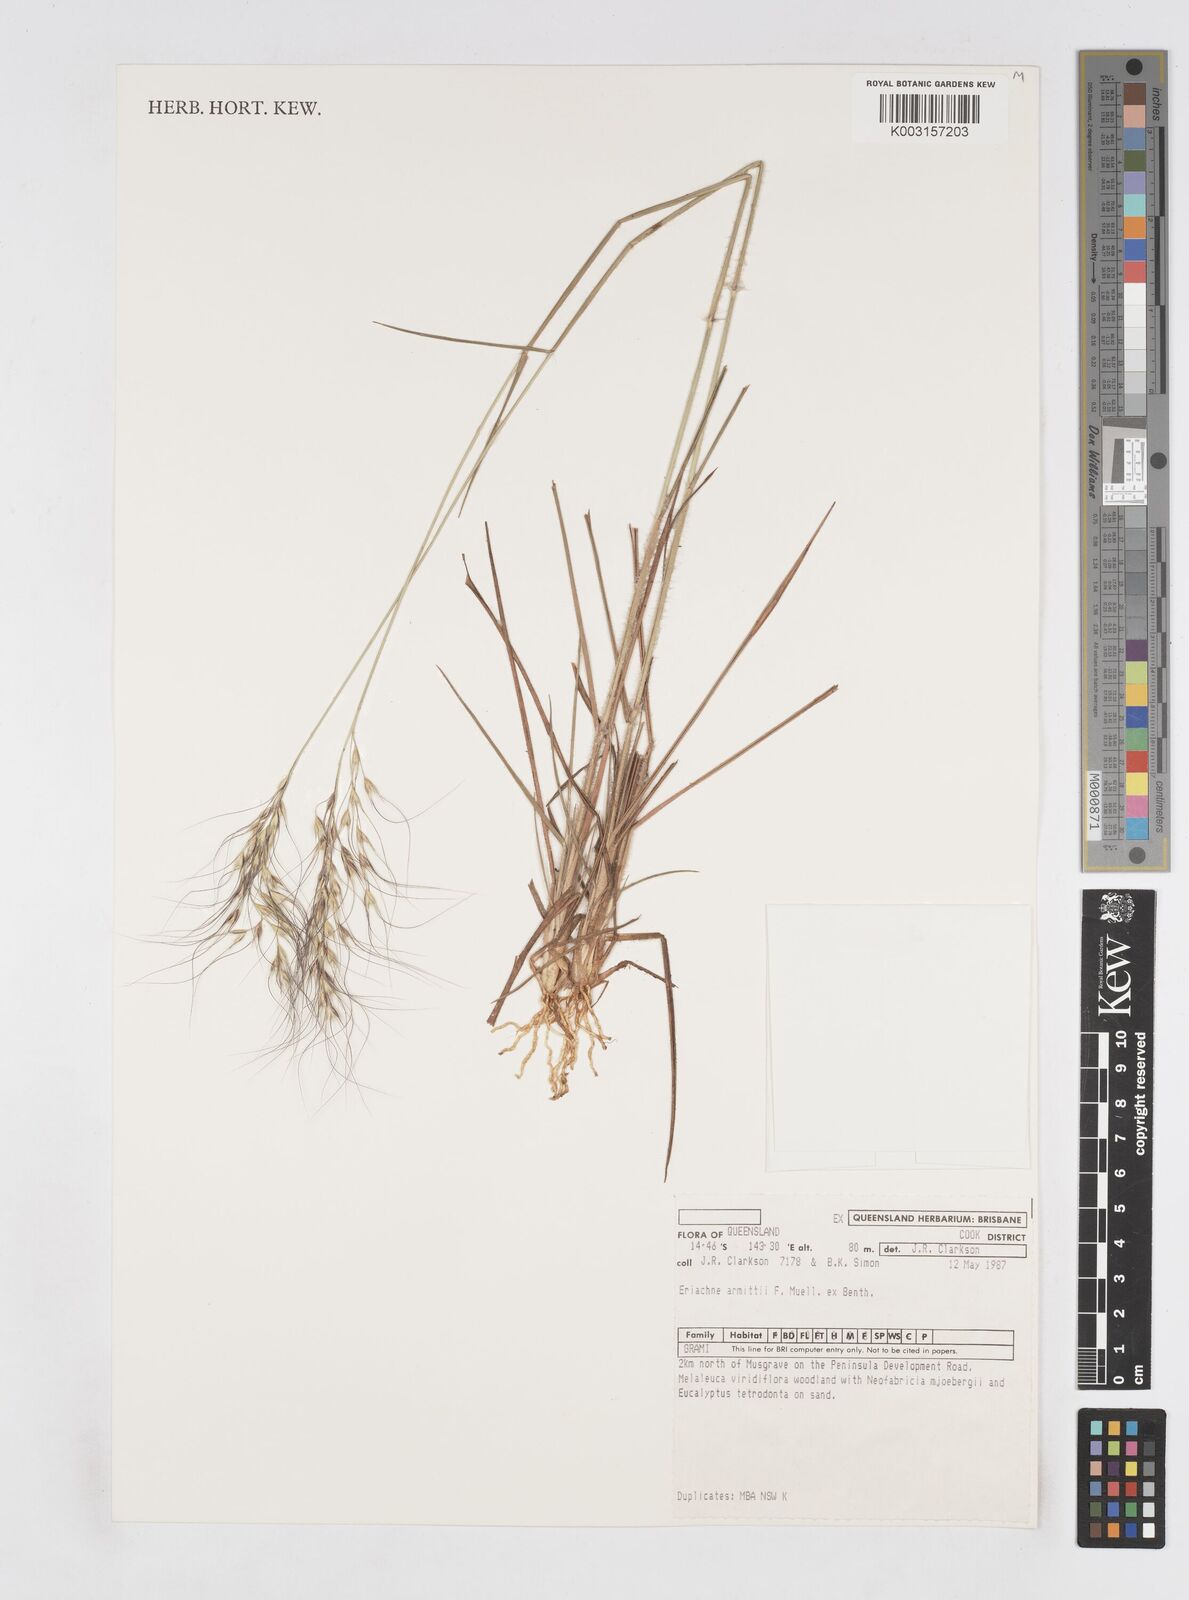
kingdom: Plantae
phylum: Tracheophyta
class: Liliopsida
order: Poales
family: Poaceae
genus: Eriachne
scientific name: Eriachne armitii
